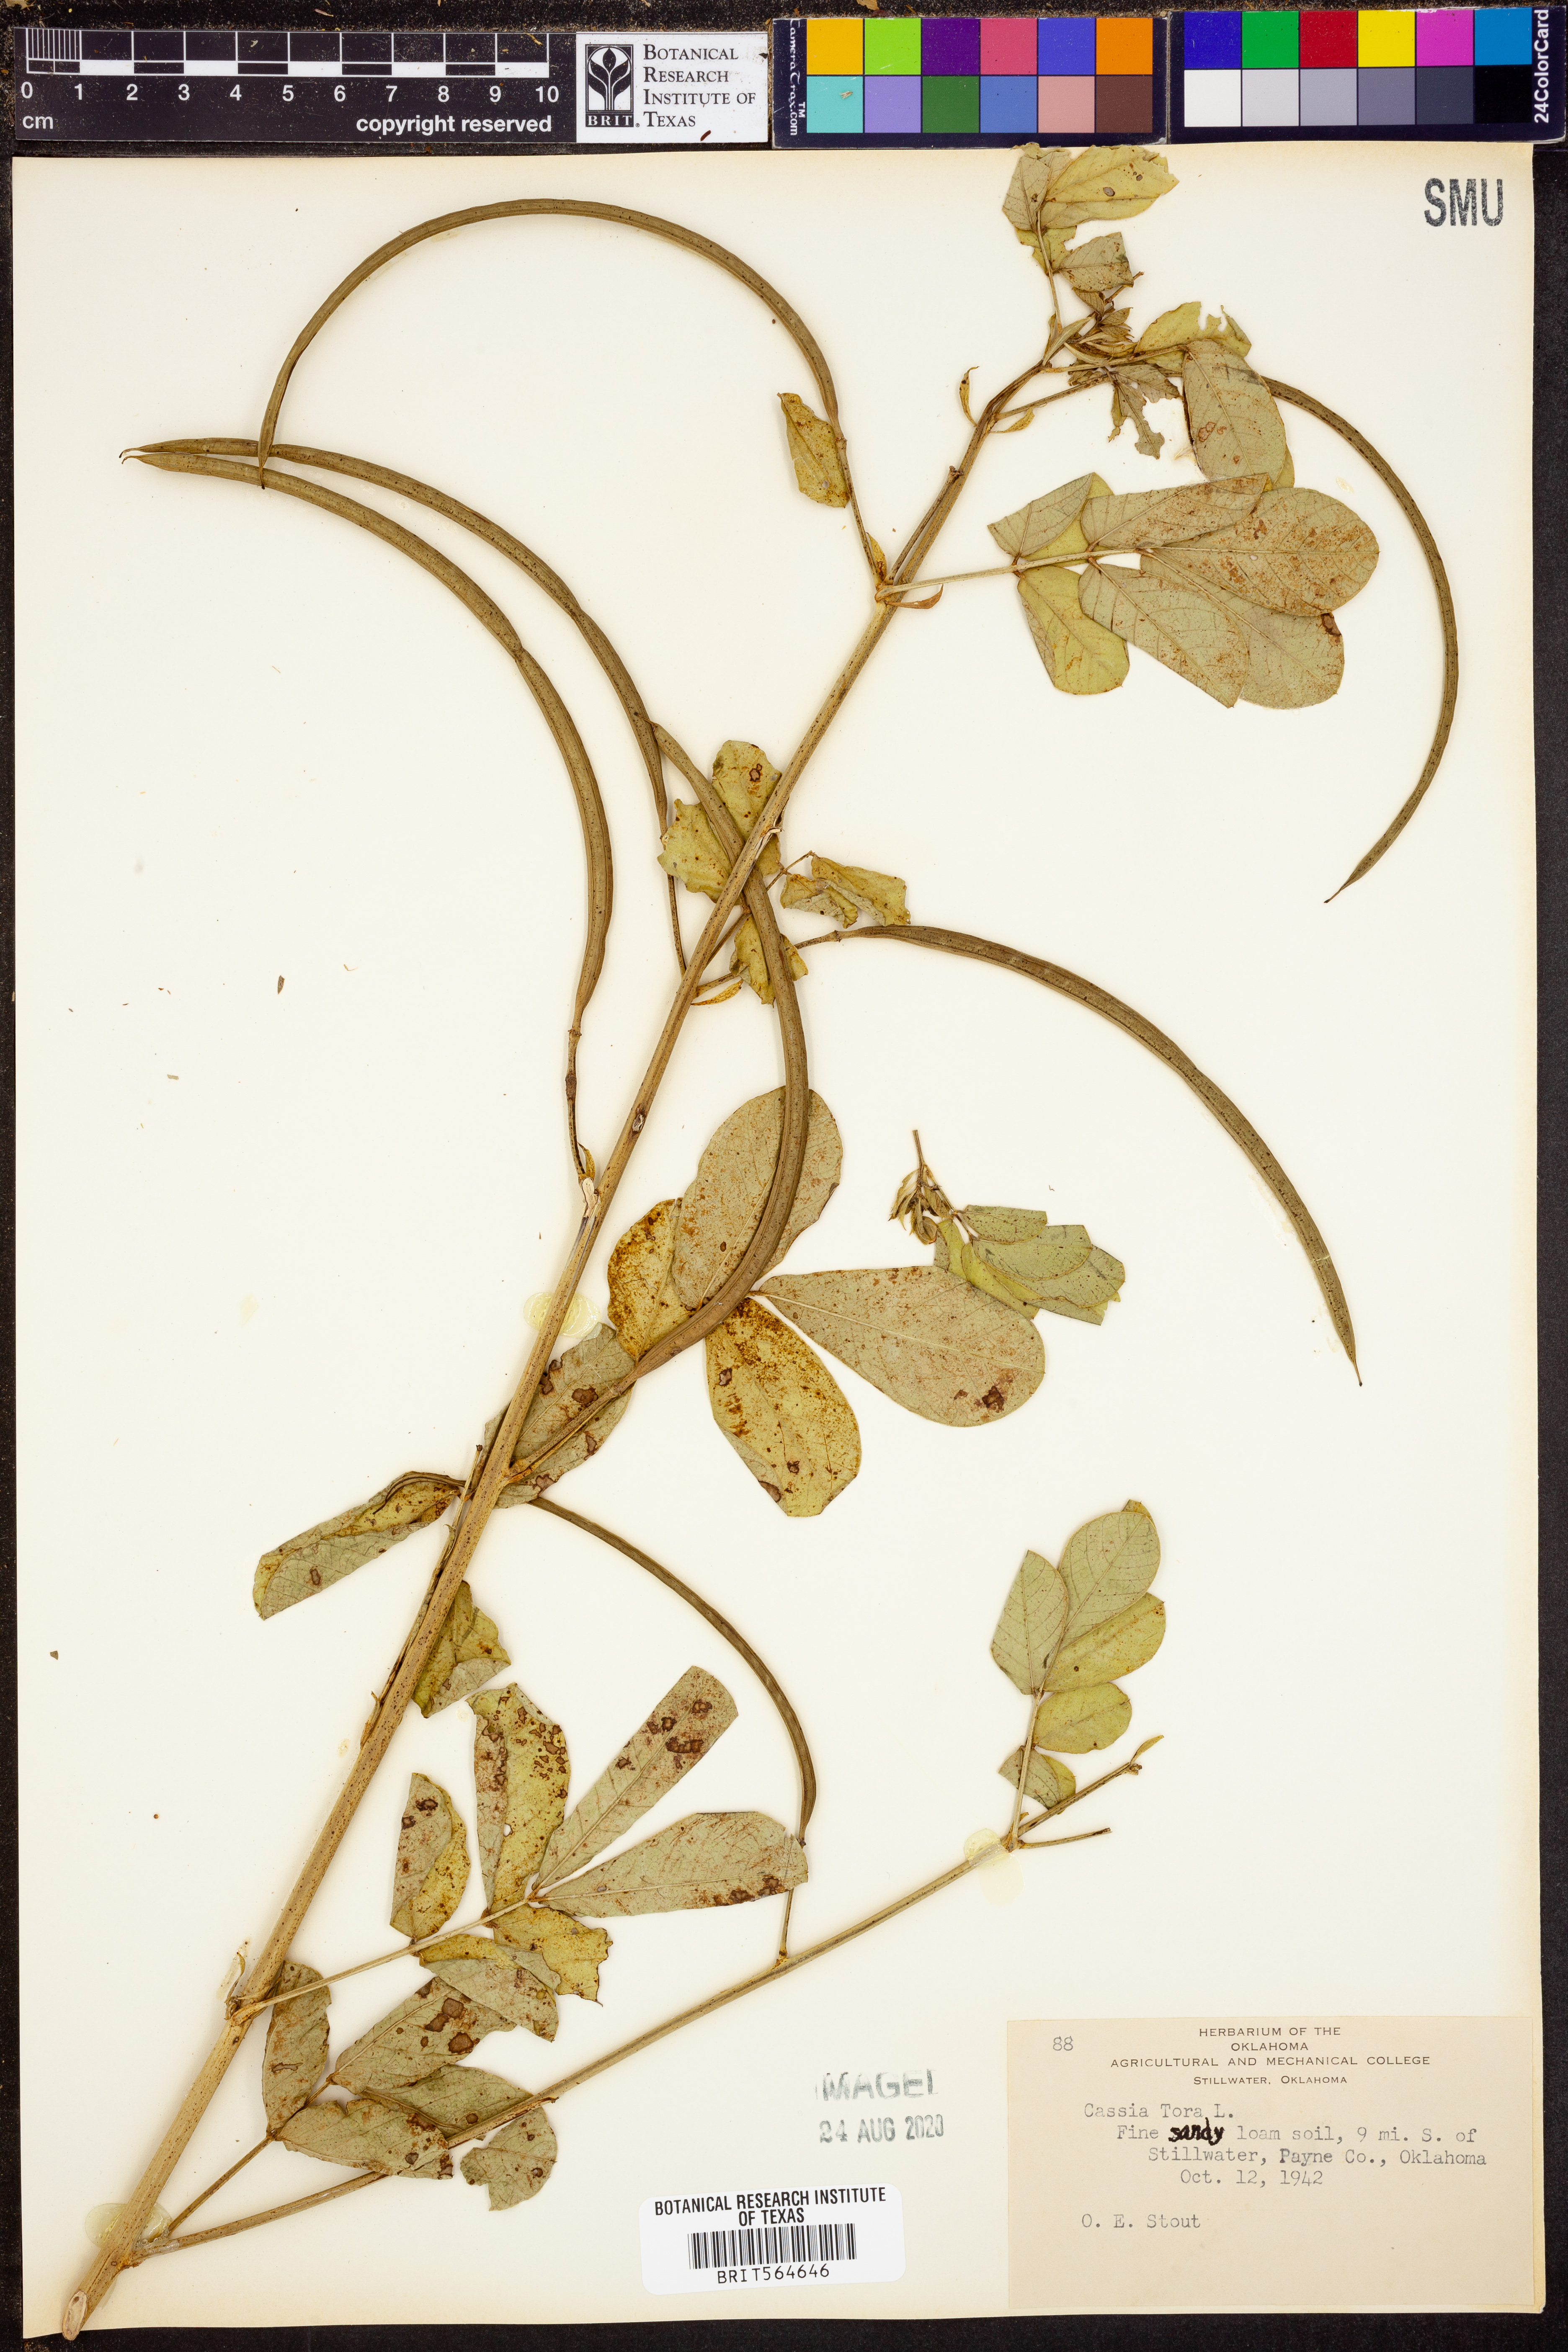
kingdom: Plantae
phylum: Tracheophyta
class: Magnoliopsida
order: Fabales
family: Fabaceae
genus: Senna
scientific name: Senna tora
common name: Sickle senna
